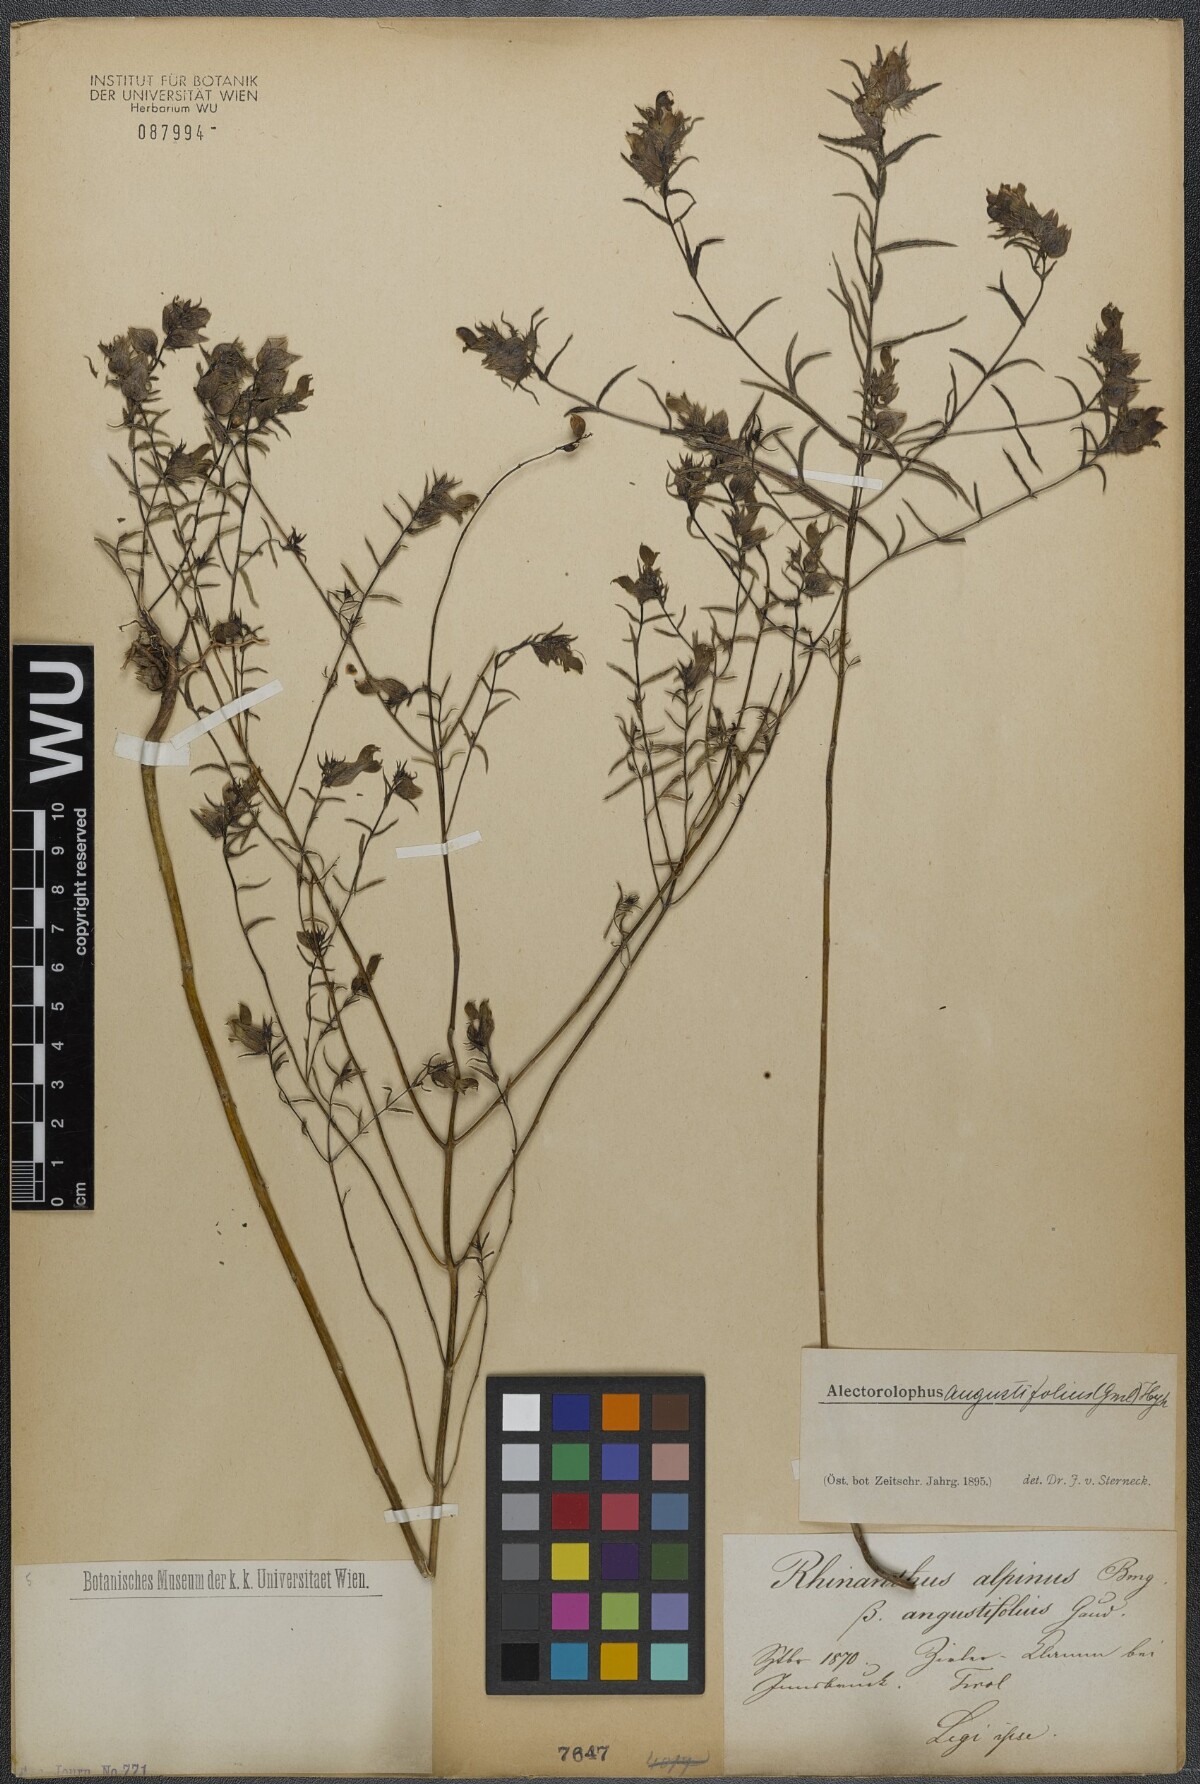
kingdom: Plantae
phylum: Tracheophyta
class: Magnoliopsida
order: Lamiales
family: Orobanchaceae
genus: Rhinanthus
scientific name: Rhinanthus
